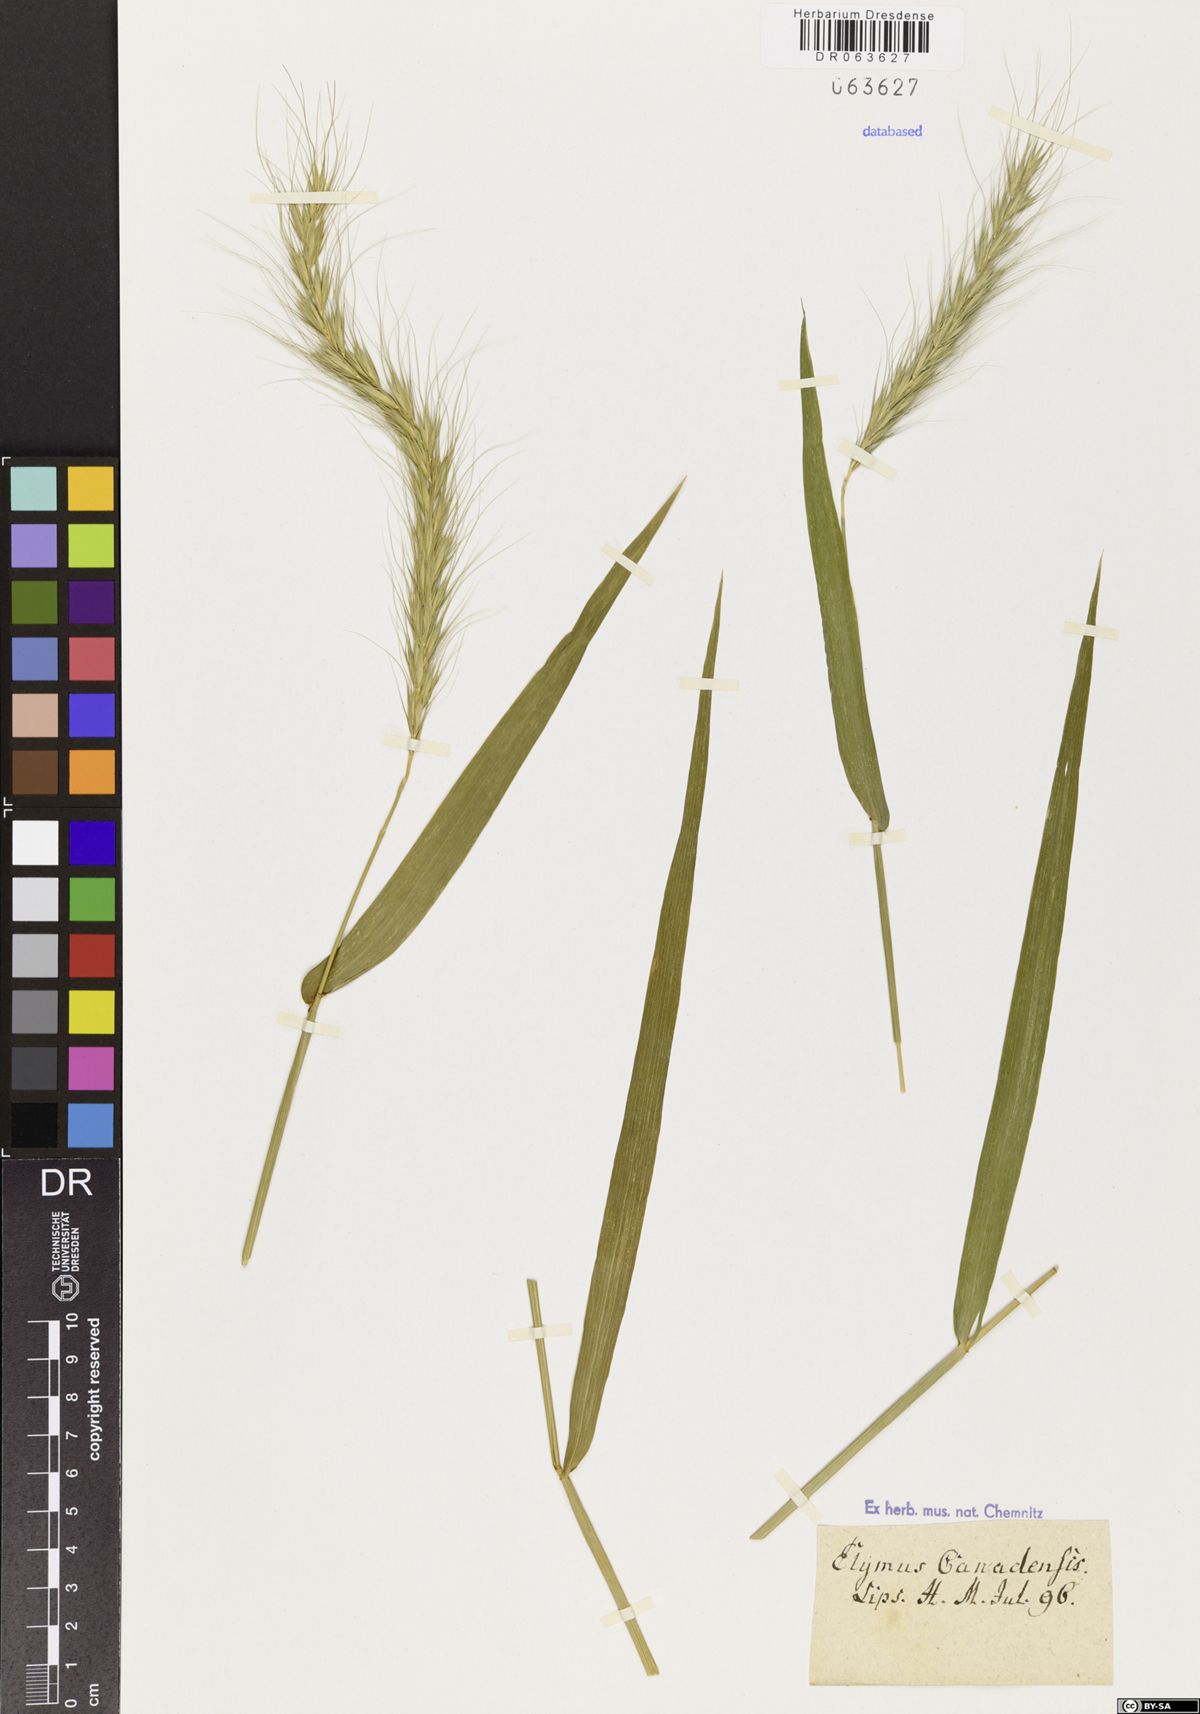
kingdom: Plantae
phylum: Tracheophyta
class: Liliopsida
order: Poales
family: Poaceae
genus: Elymus
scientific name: Elymus canadensis
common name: Canada wild rye
